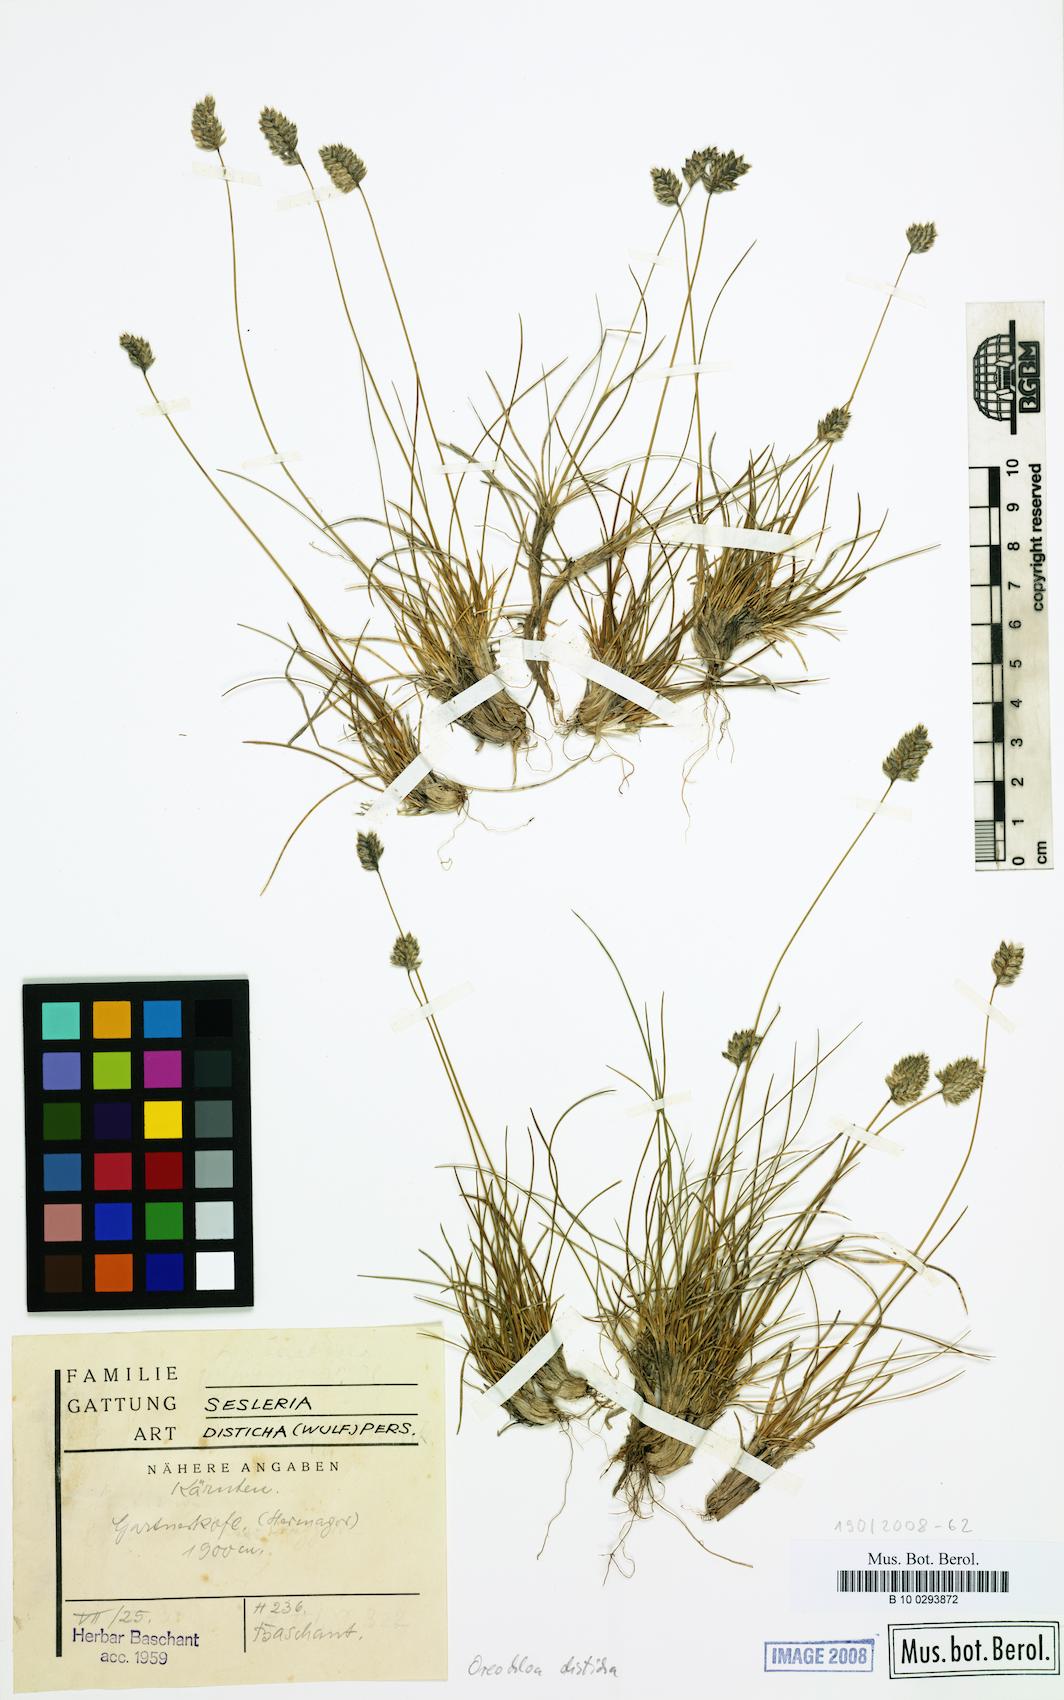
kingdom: Plantae
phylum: Tracheophyta
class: Liliopsida
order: Poales
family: Poaceae
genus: Oreochloa
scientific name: Oreochloa disticha
